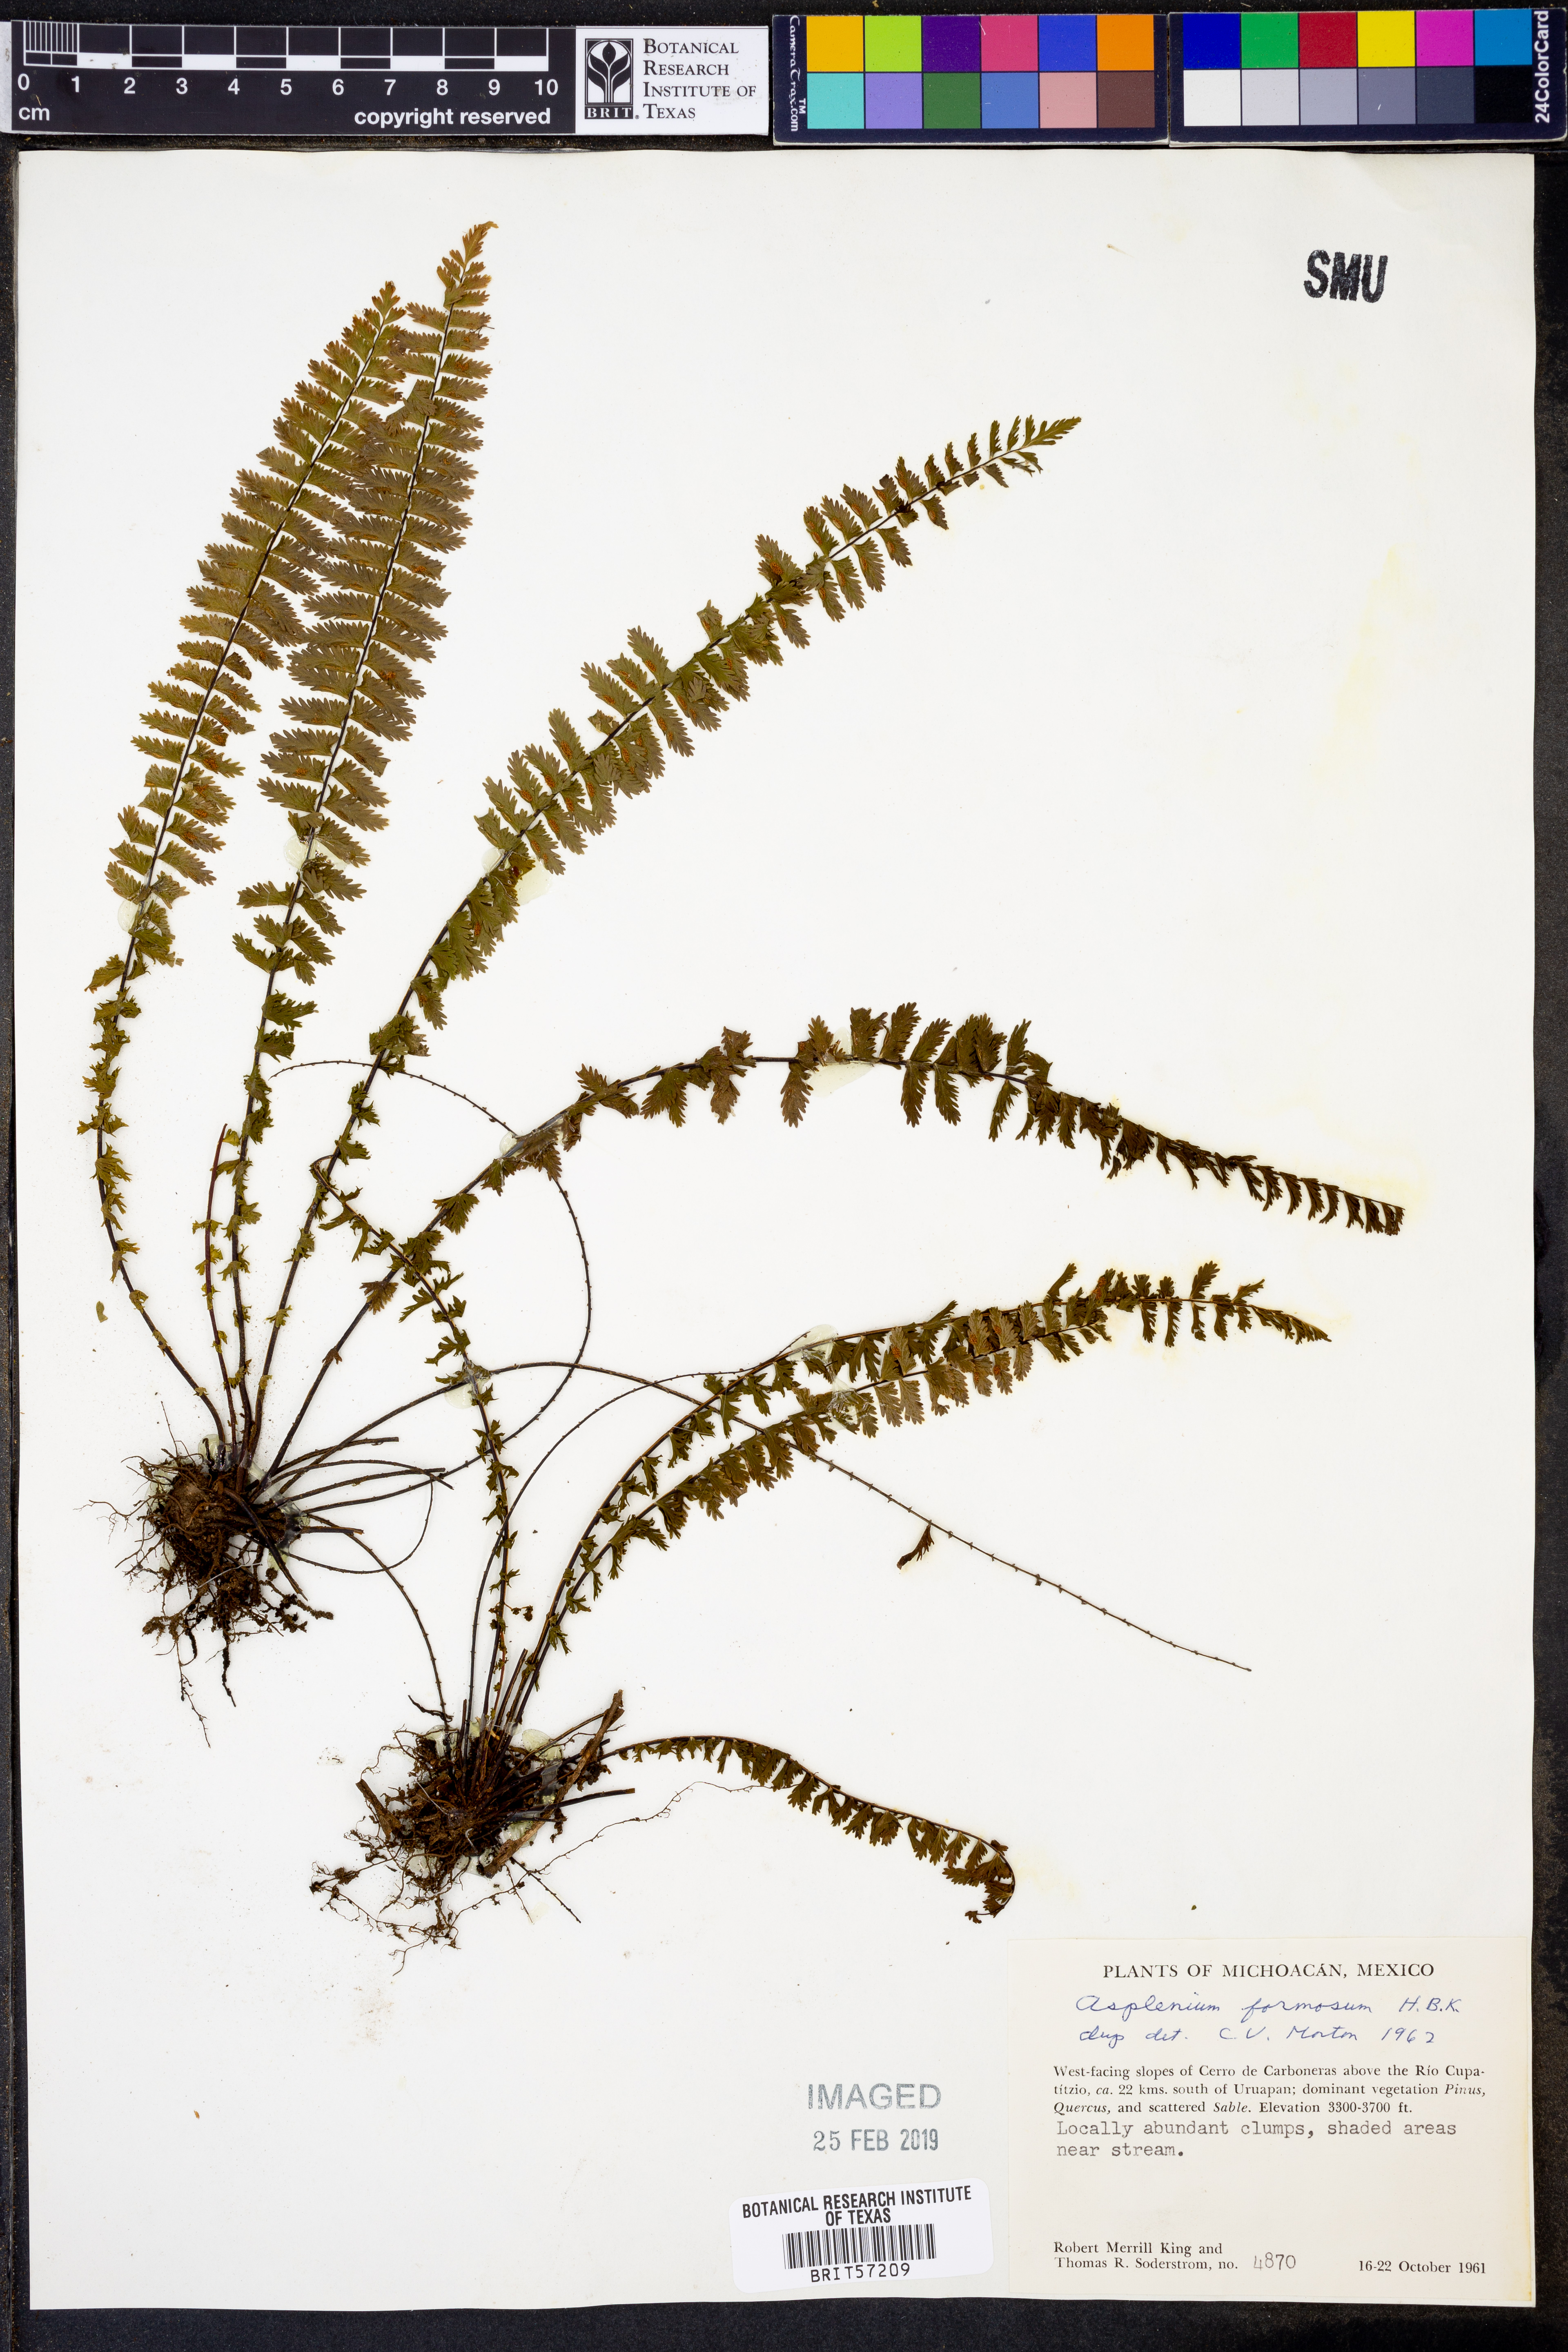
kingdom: Plantae
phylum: Tracheophyta
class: Polypodiopsida
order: Polypodiales
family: Aspleniaceae
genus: Asplenium
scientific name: Asplenium formosum
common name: Showy spleenwort
